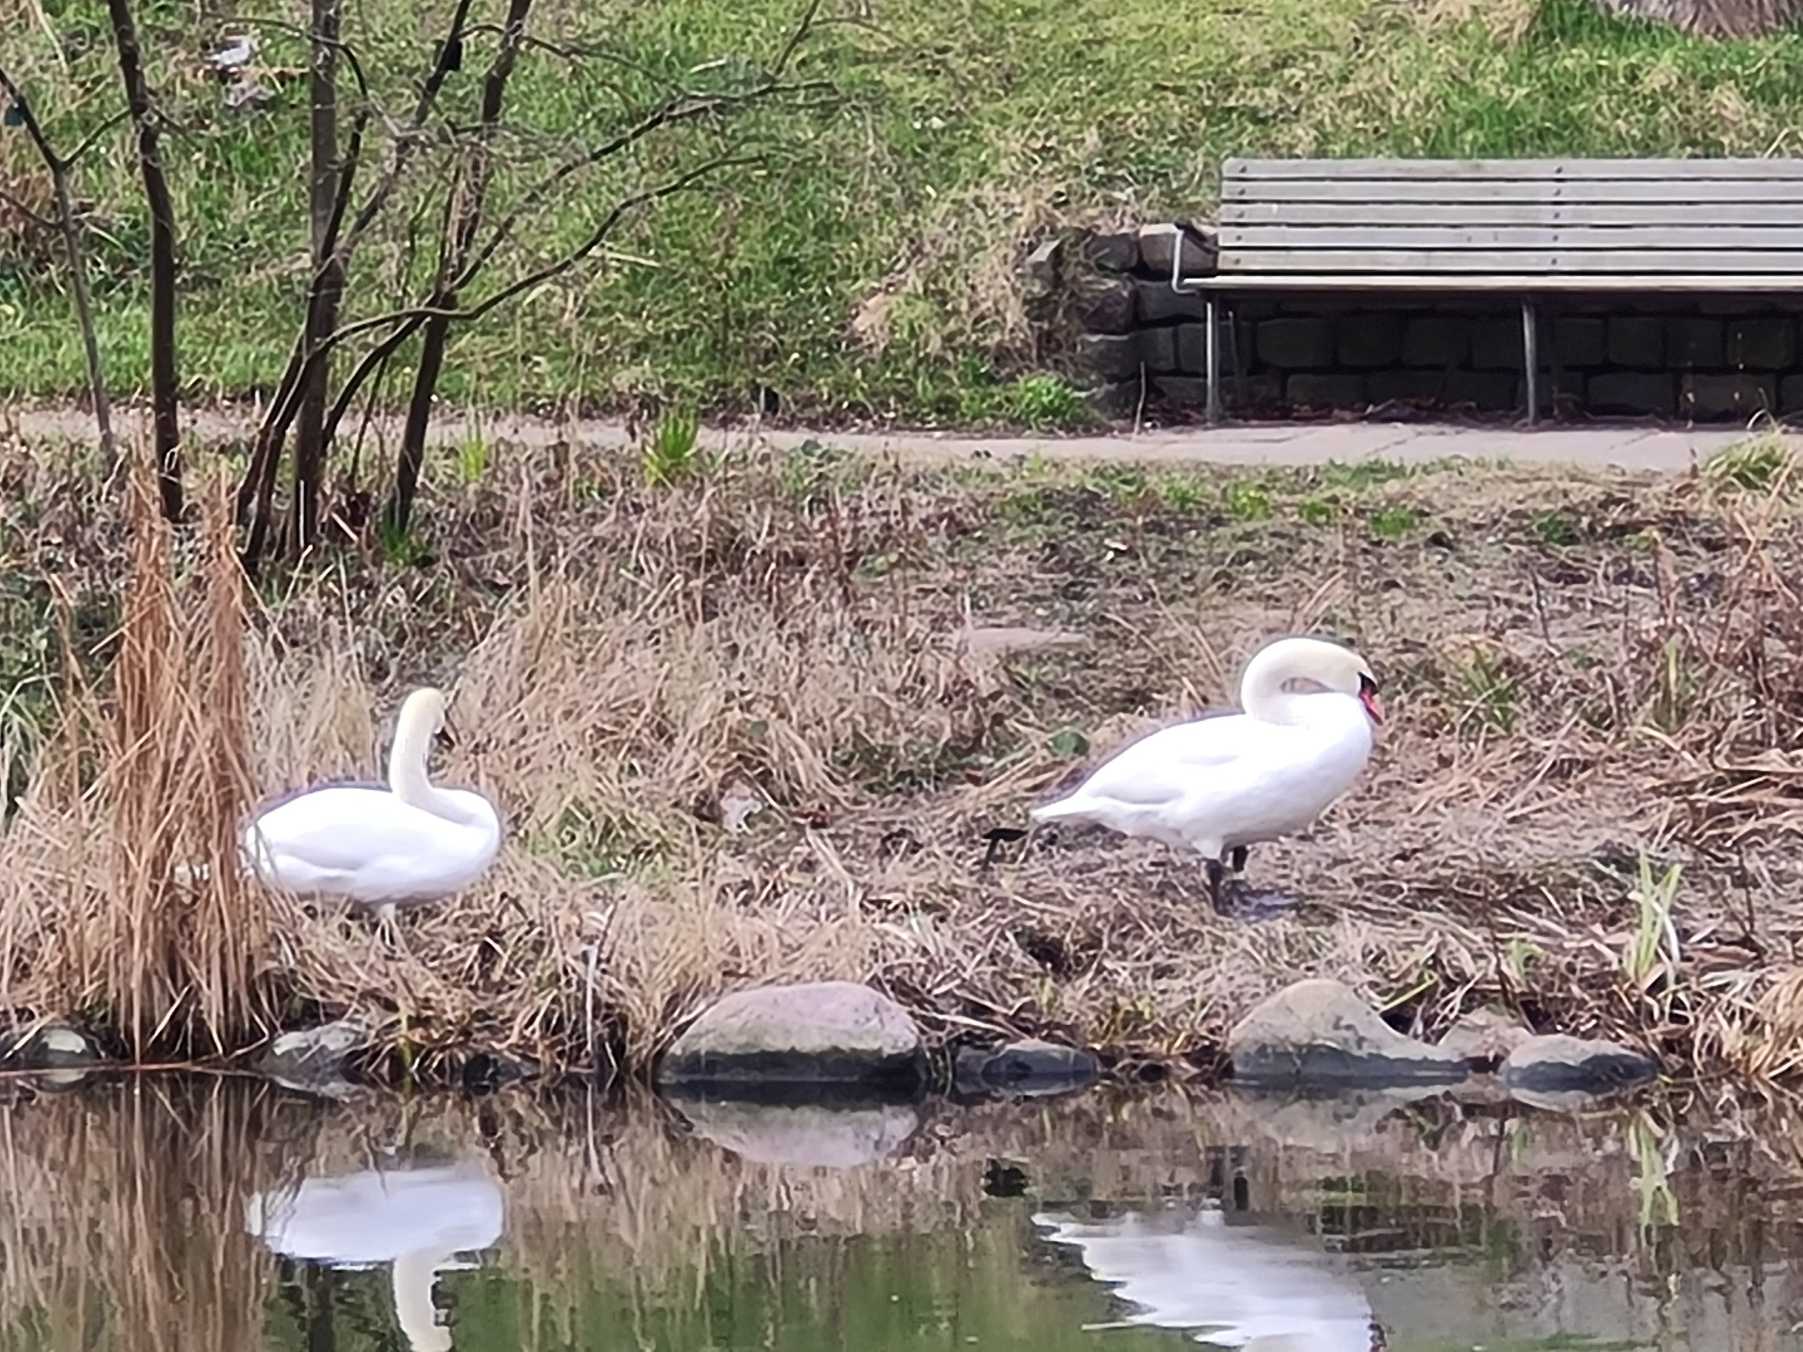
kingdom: Animalia
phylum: Chordata
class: Aves
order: Anseriformes
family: Anatidae
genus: Cygnus
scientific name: Cygnus olor
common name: Knopsvane
